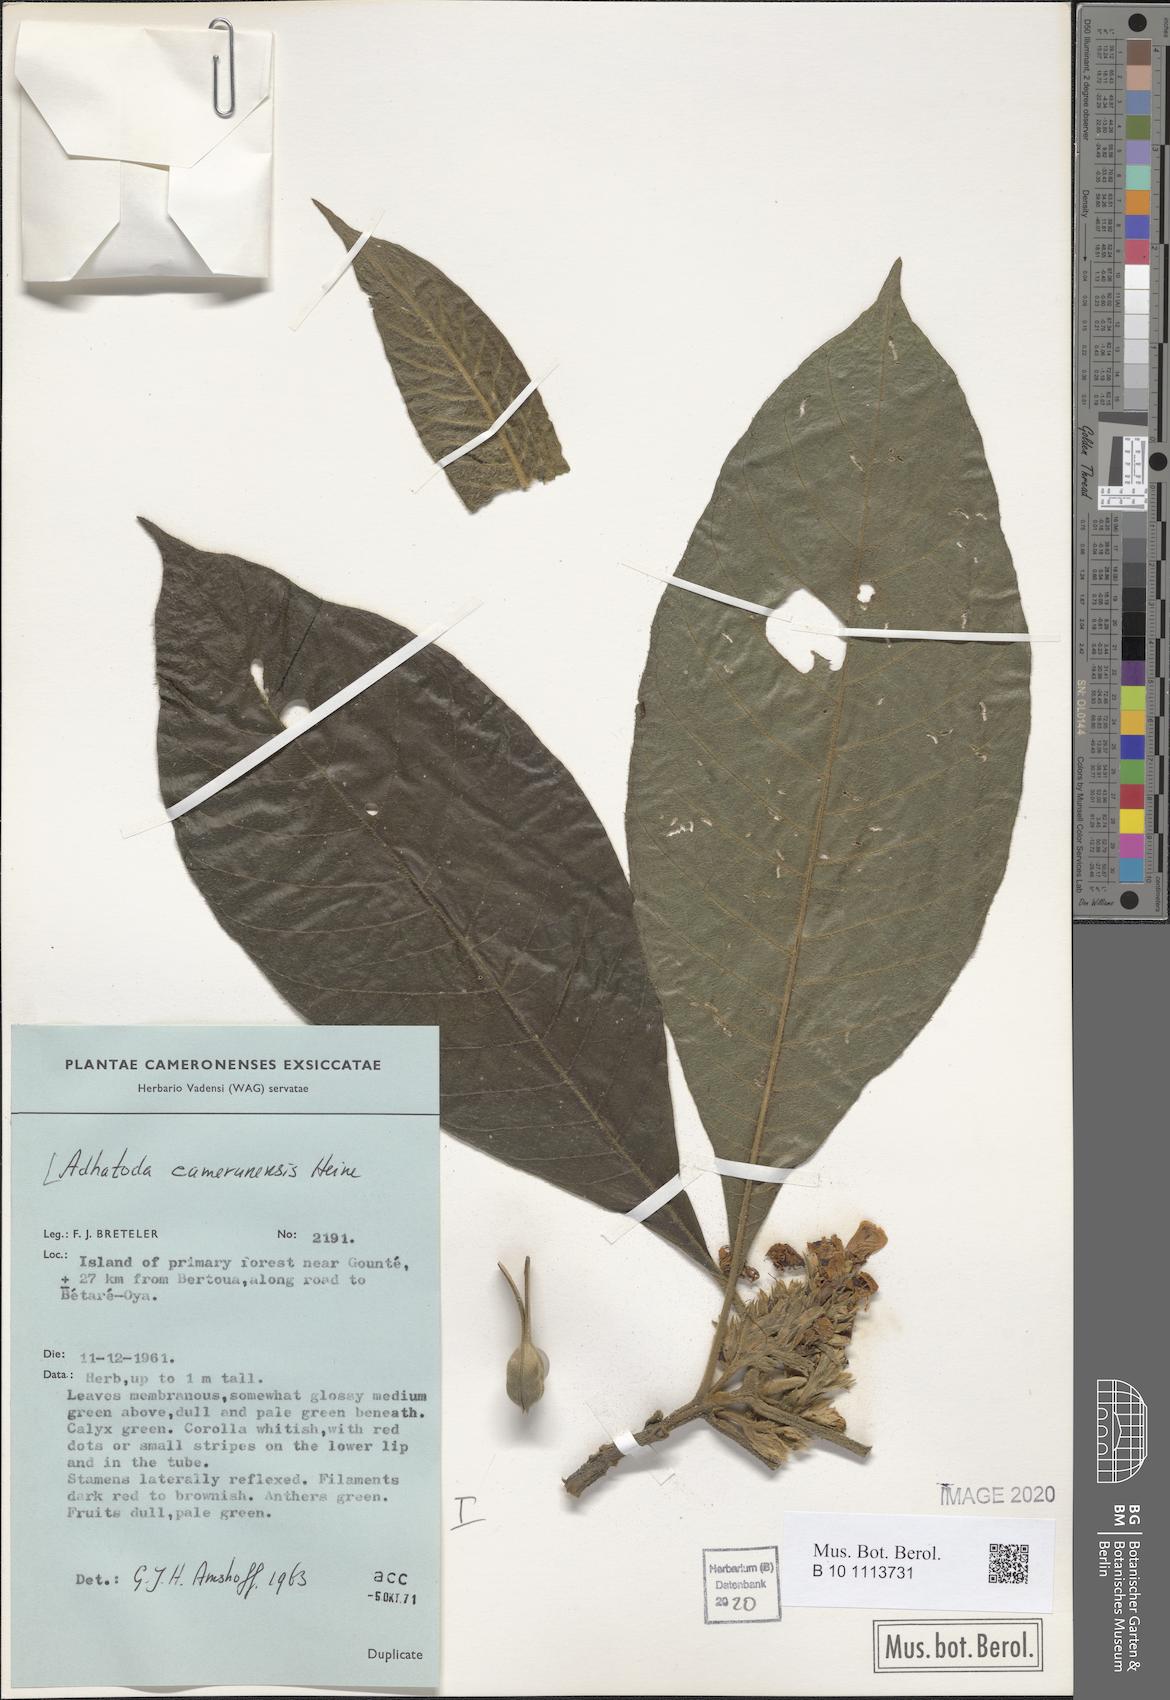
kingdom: Plantae
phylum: Tracheophyta
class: Magnoliopsida
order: Lamiales
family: Acanthaceae
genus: Justicia
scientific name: Justicia camerunensis
